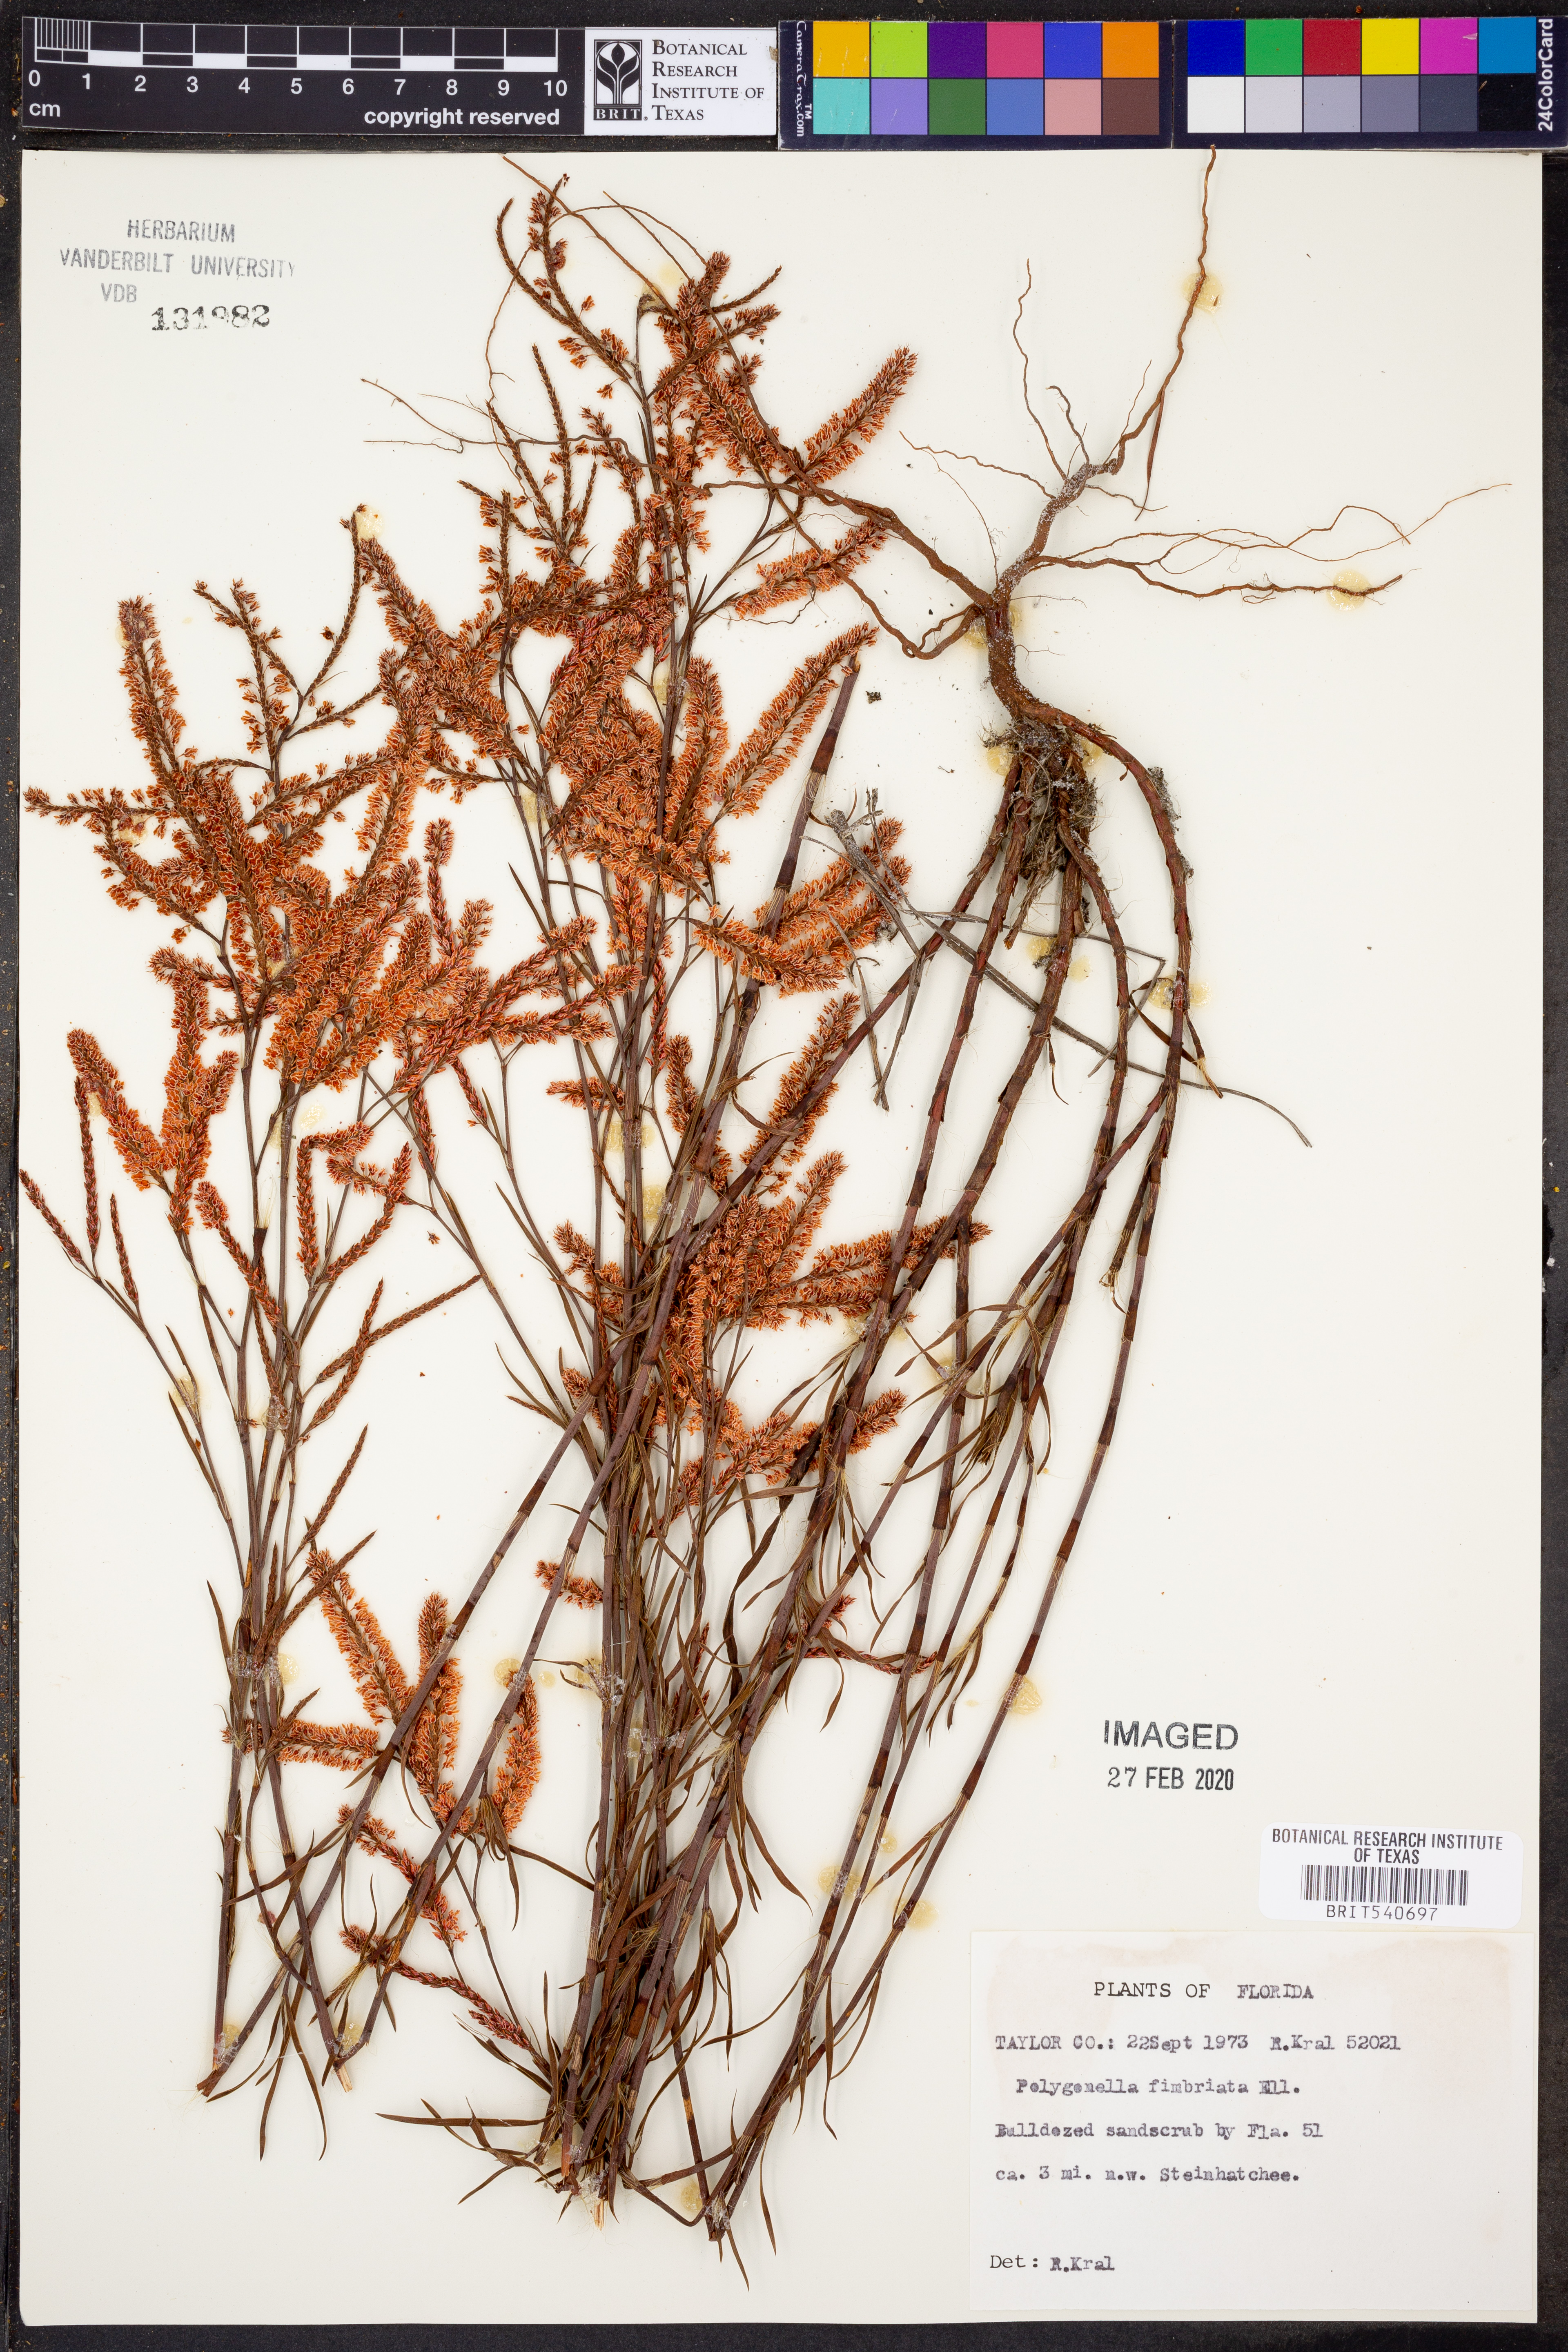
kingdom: Plantae
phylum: Tracheophyta
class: Magnoliopsida
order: Caryophyllales
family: Polygonaceae
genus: Polygonella
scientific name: Polygonella fimbriata
